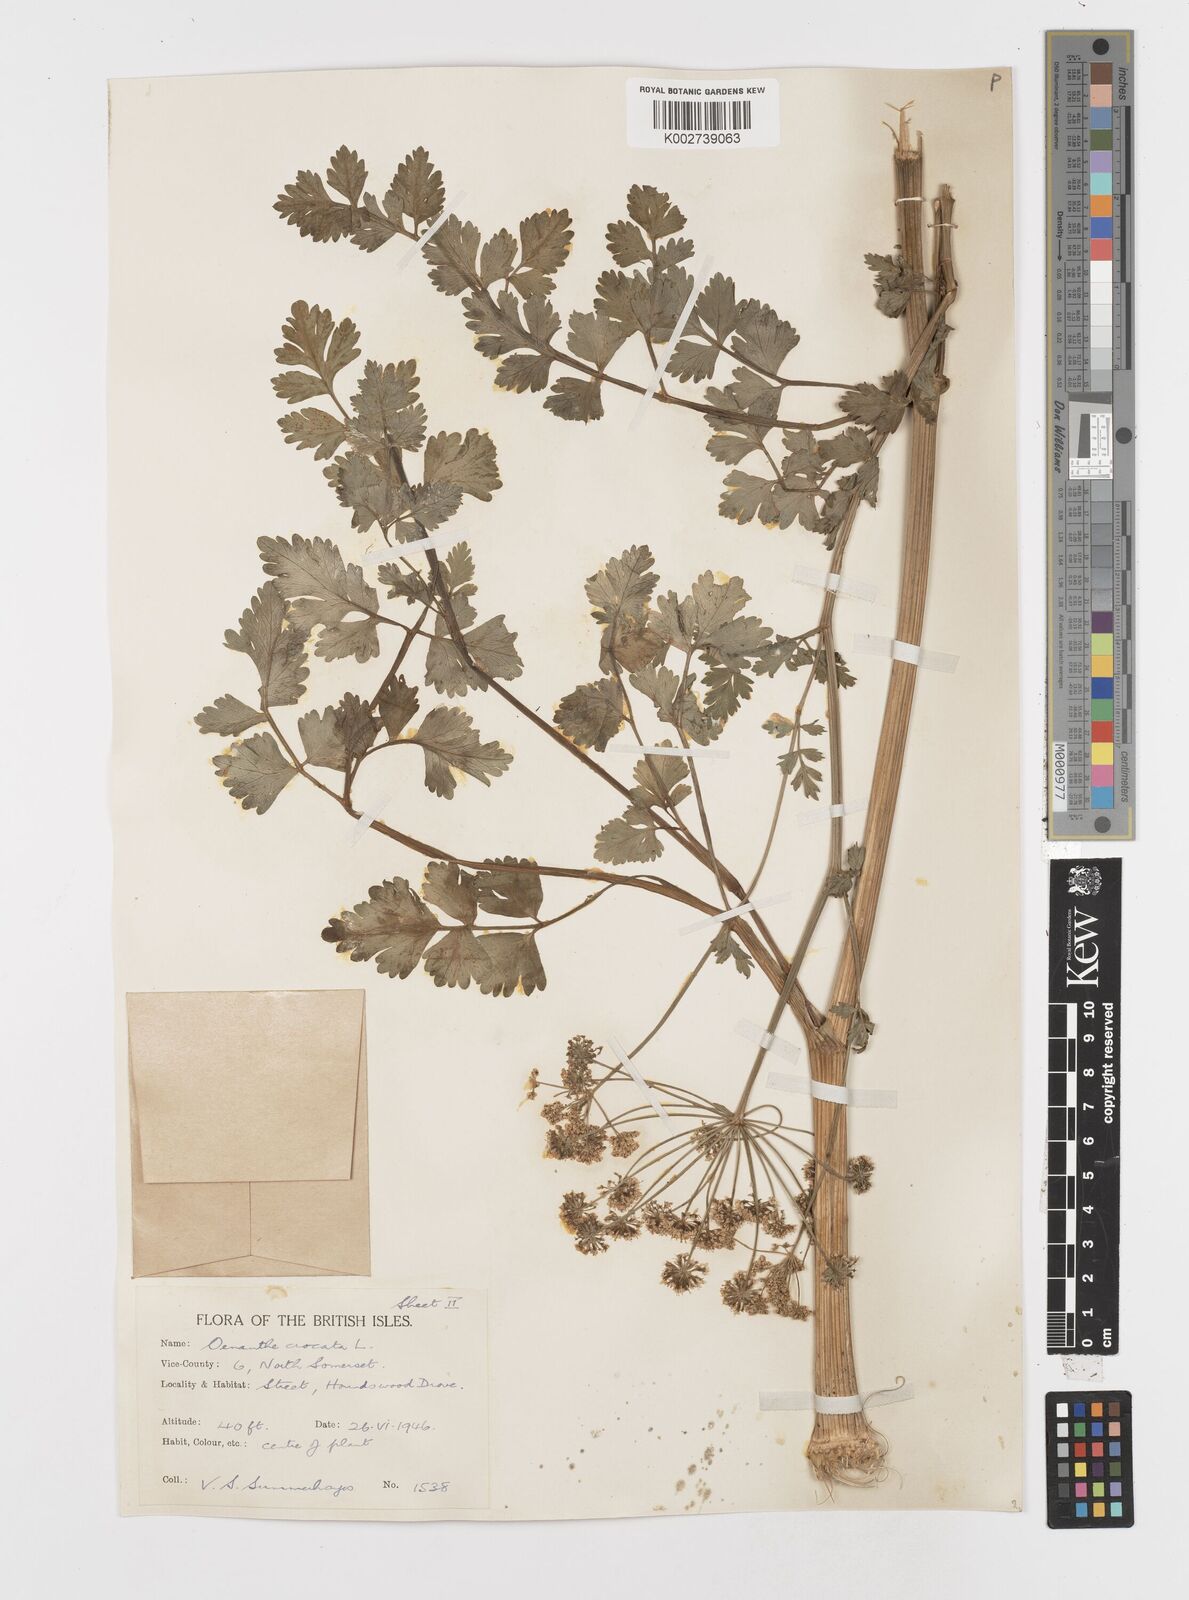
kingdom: Plantae
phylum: Tracheophyta
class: Magnoliopsida
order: Apiales
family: Apiaceae
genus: Oenanthe
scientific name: Oenanthe crocata
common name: Hemlock water-dropwort
